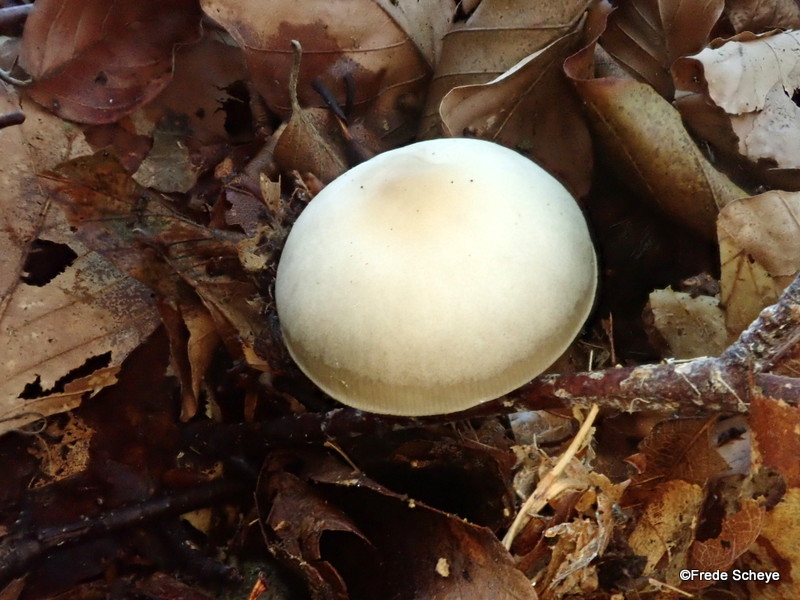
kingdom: Fungi
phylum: Basidiomycota
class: Agaricomycetes
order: Agaricales
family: Omphalotaceae
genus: Rhodocollybia
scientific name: Rhodocollybia asema
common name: horngrå fladhat
